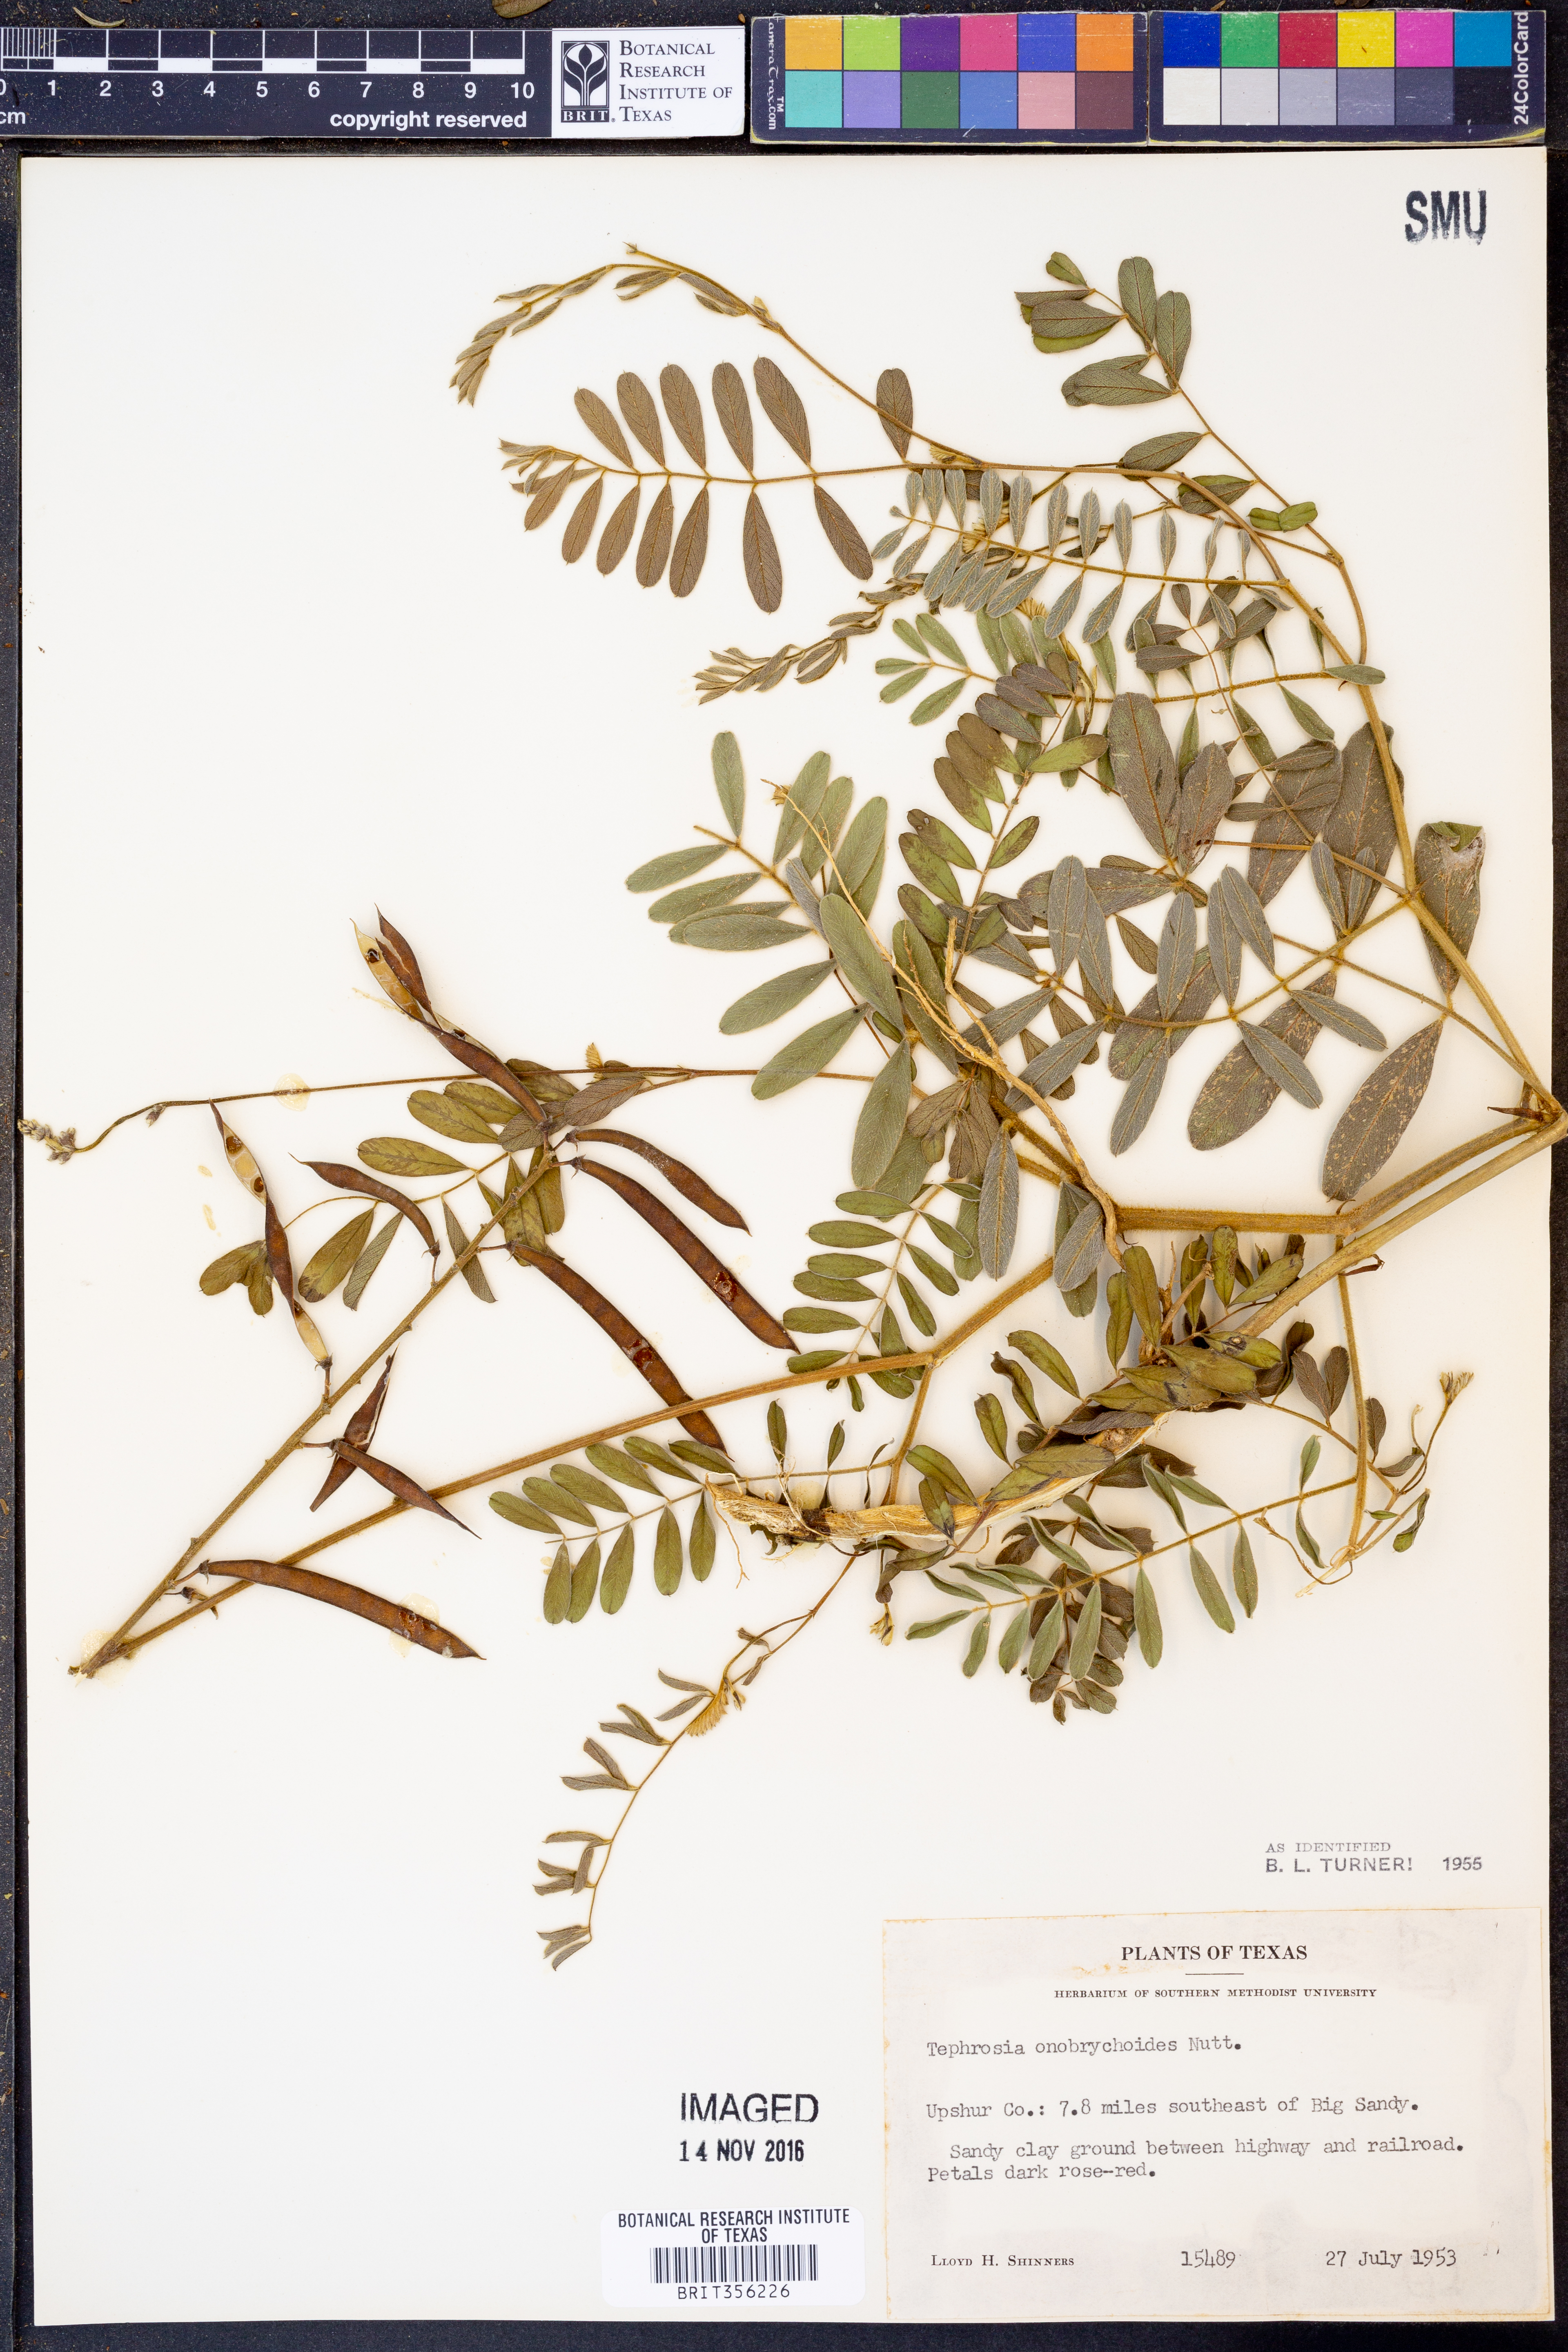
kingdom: Plantae
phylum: Tracheophyta
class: Magnoliopsida
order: Fabales
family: Fabaceae
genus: Tephrosia
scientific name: Tephrosia onobrychoides
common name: Multi-bloom hoary-pea
